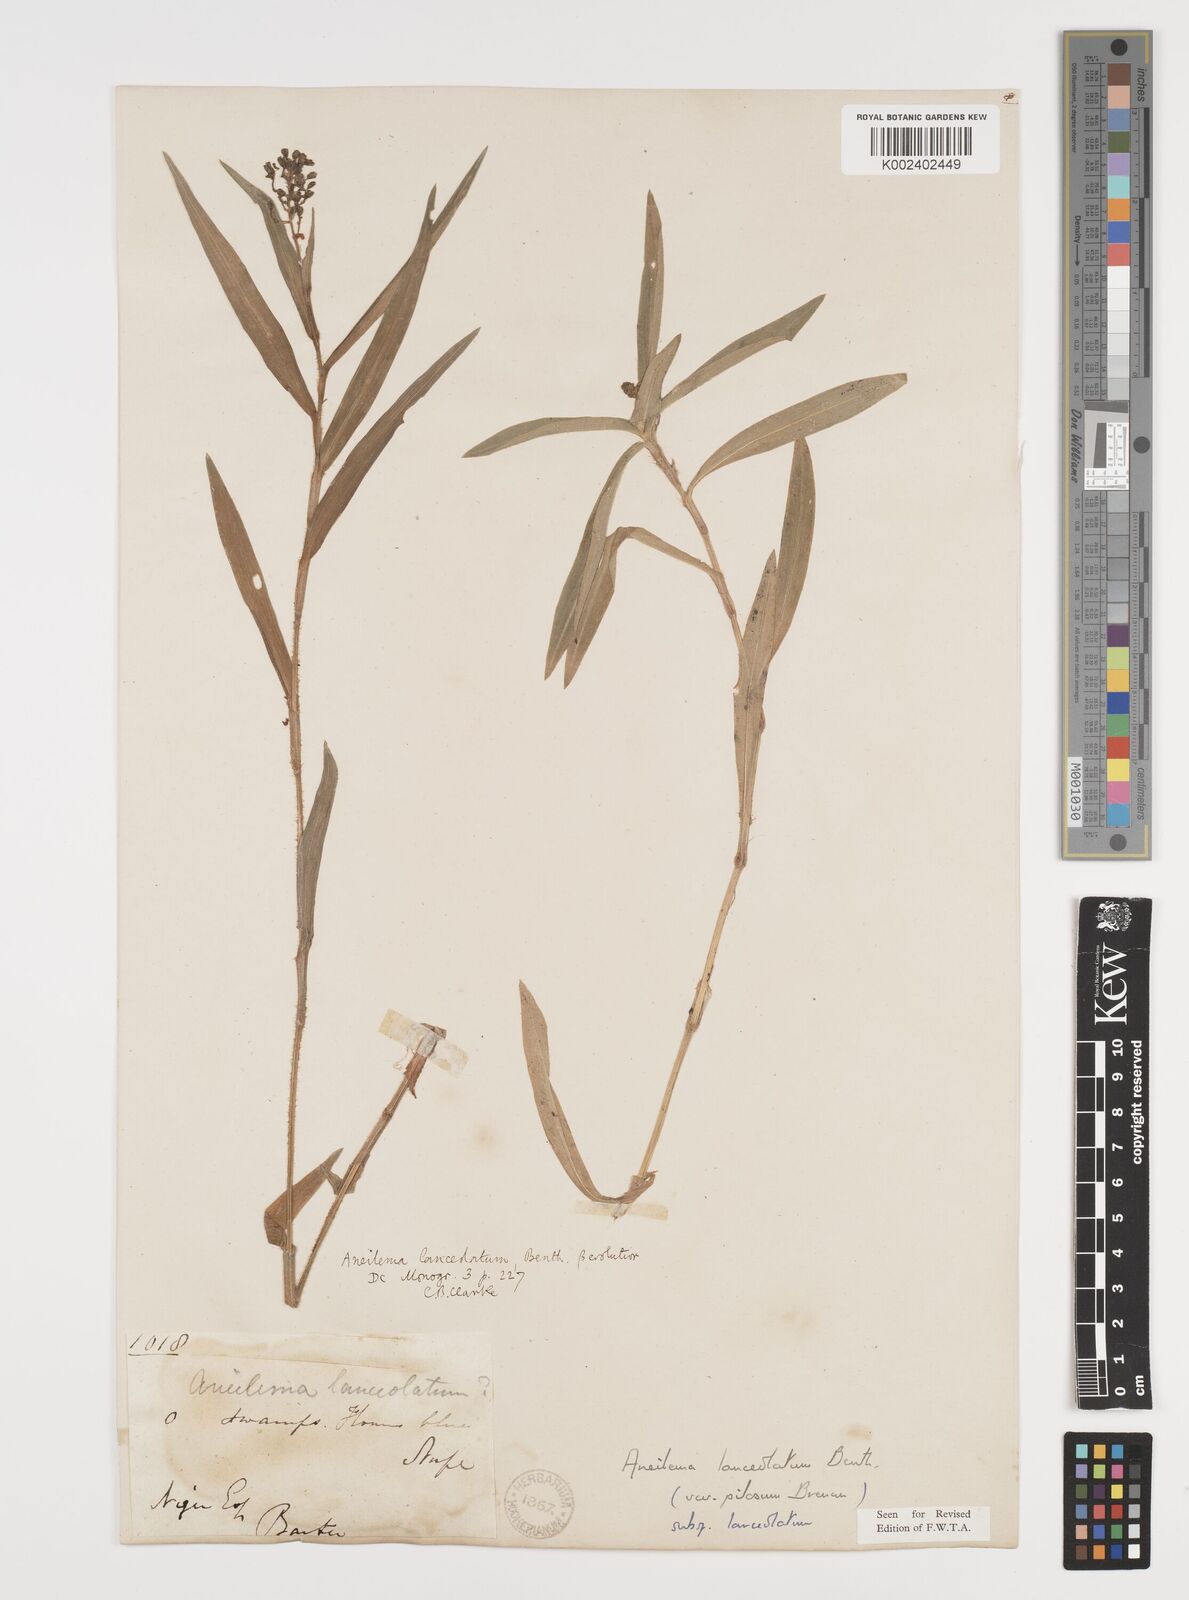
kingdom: Plantae
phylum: Tracheophyta
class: Liliopsida
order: Commelinales
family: Commelinaceae
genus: Aneilema
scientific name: Aneilema lanceolatum
